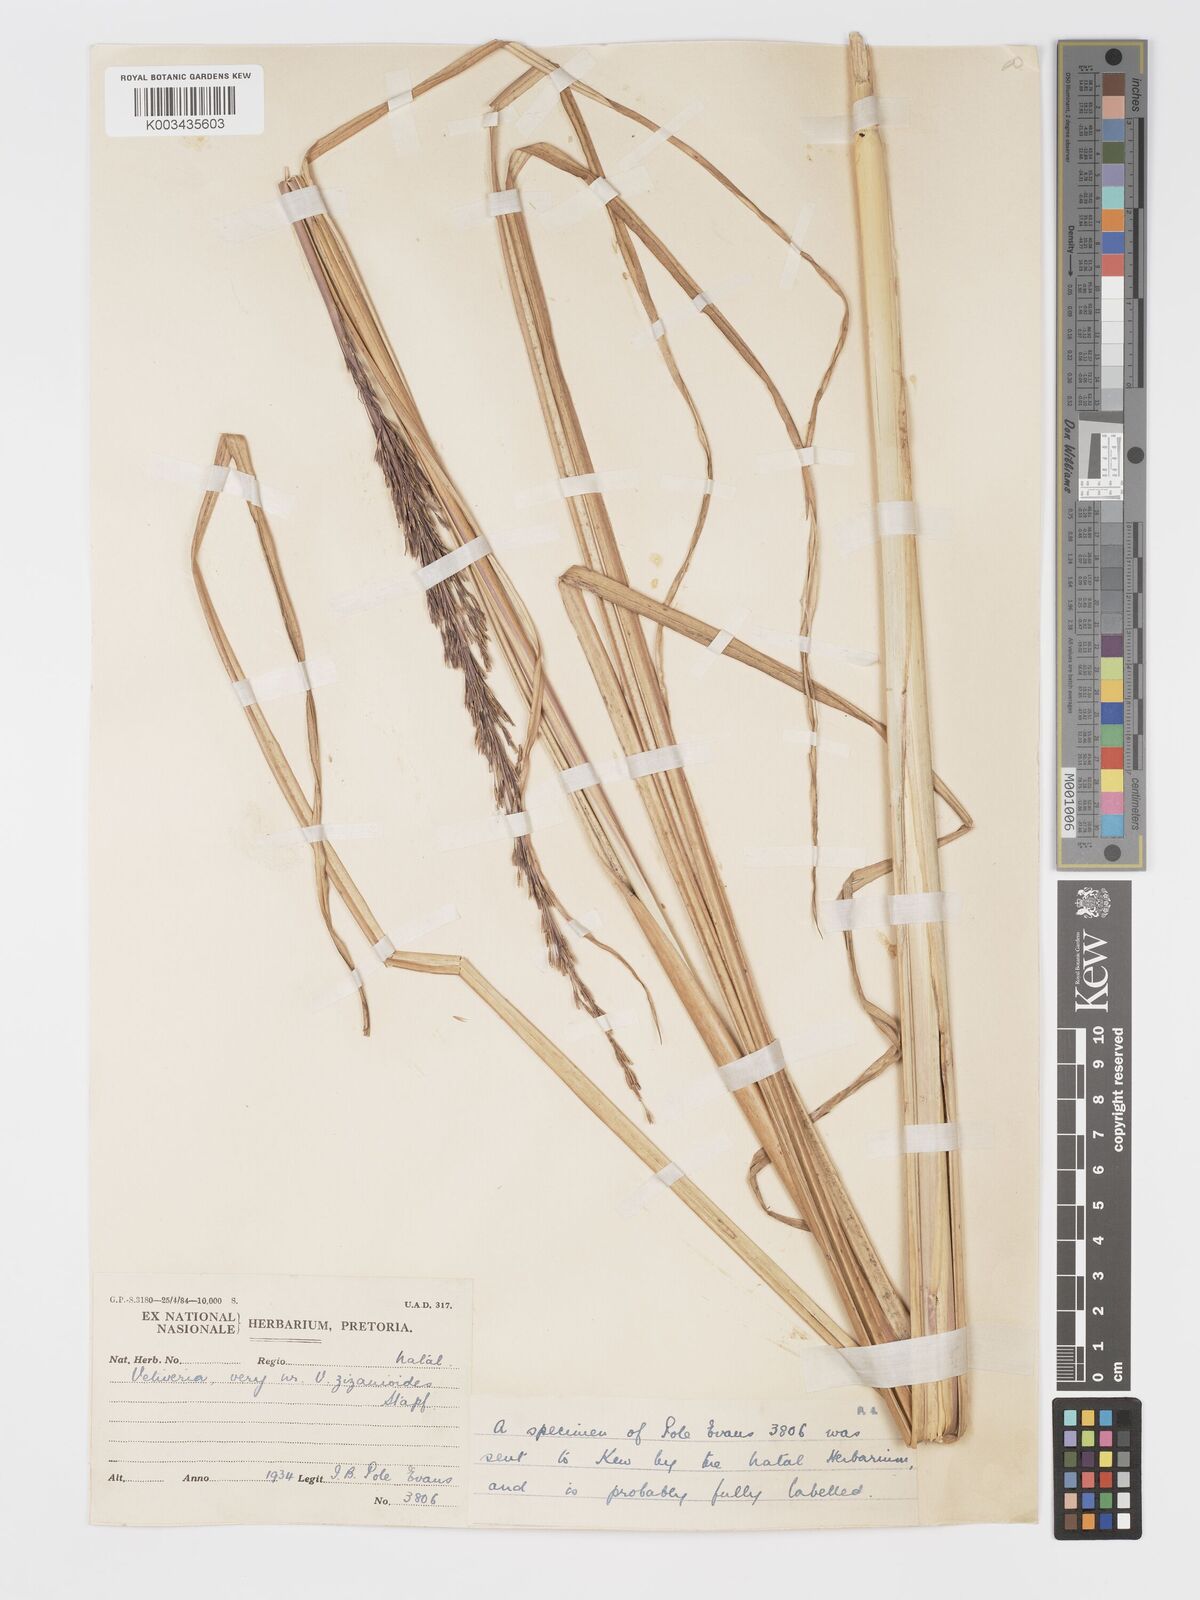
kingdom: Plantae
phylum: Tracheophyta
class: Liliopsida
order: Poales
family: Poaceae
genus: Chrysopogon
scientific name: Chrysopogon zizanioides
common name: False beardgrass
